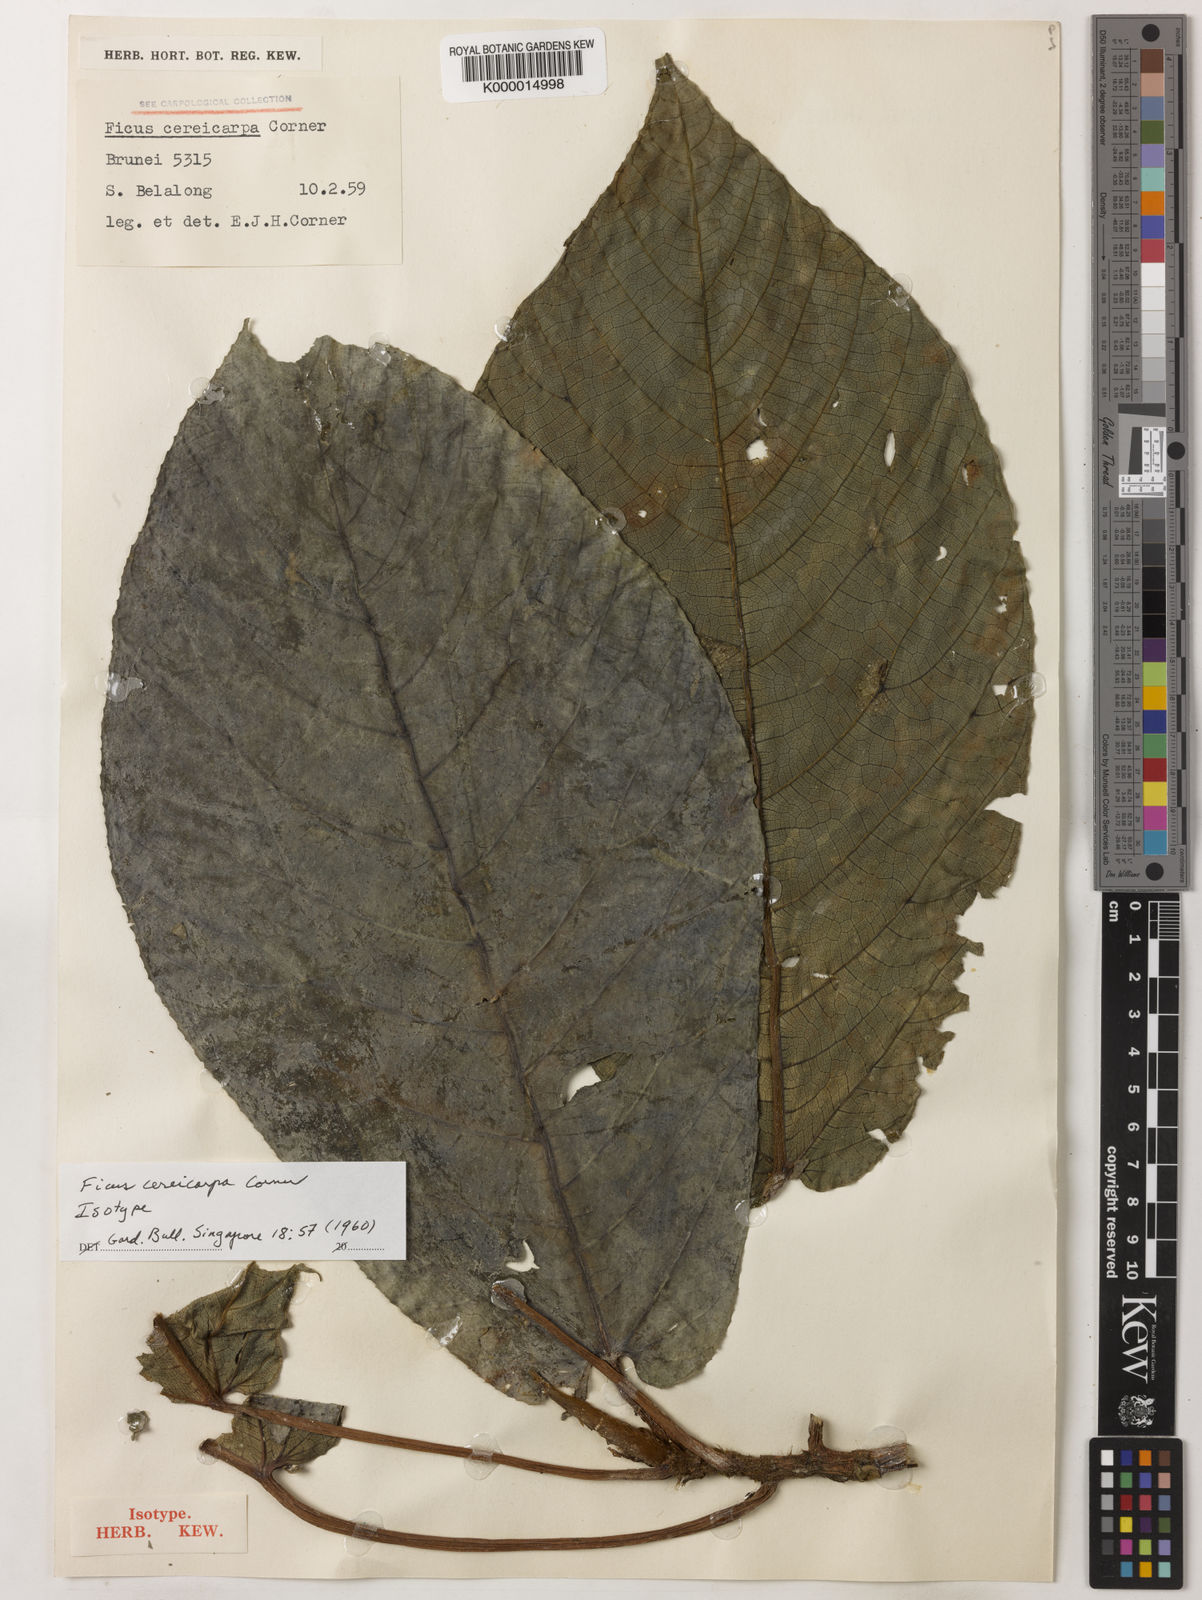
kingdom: Plantae
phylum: Tracheophyta
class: Magnoliopsida
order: Rosales
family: Moraceae
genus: Ficus
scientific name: Ficus cereicarpa
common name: Horned fig
